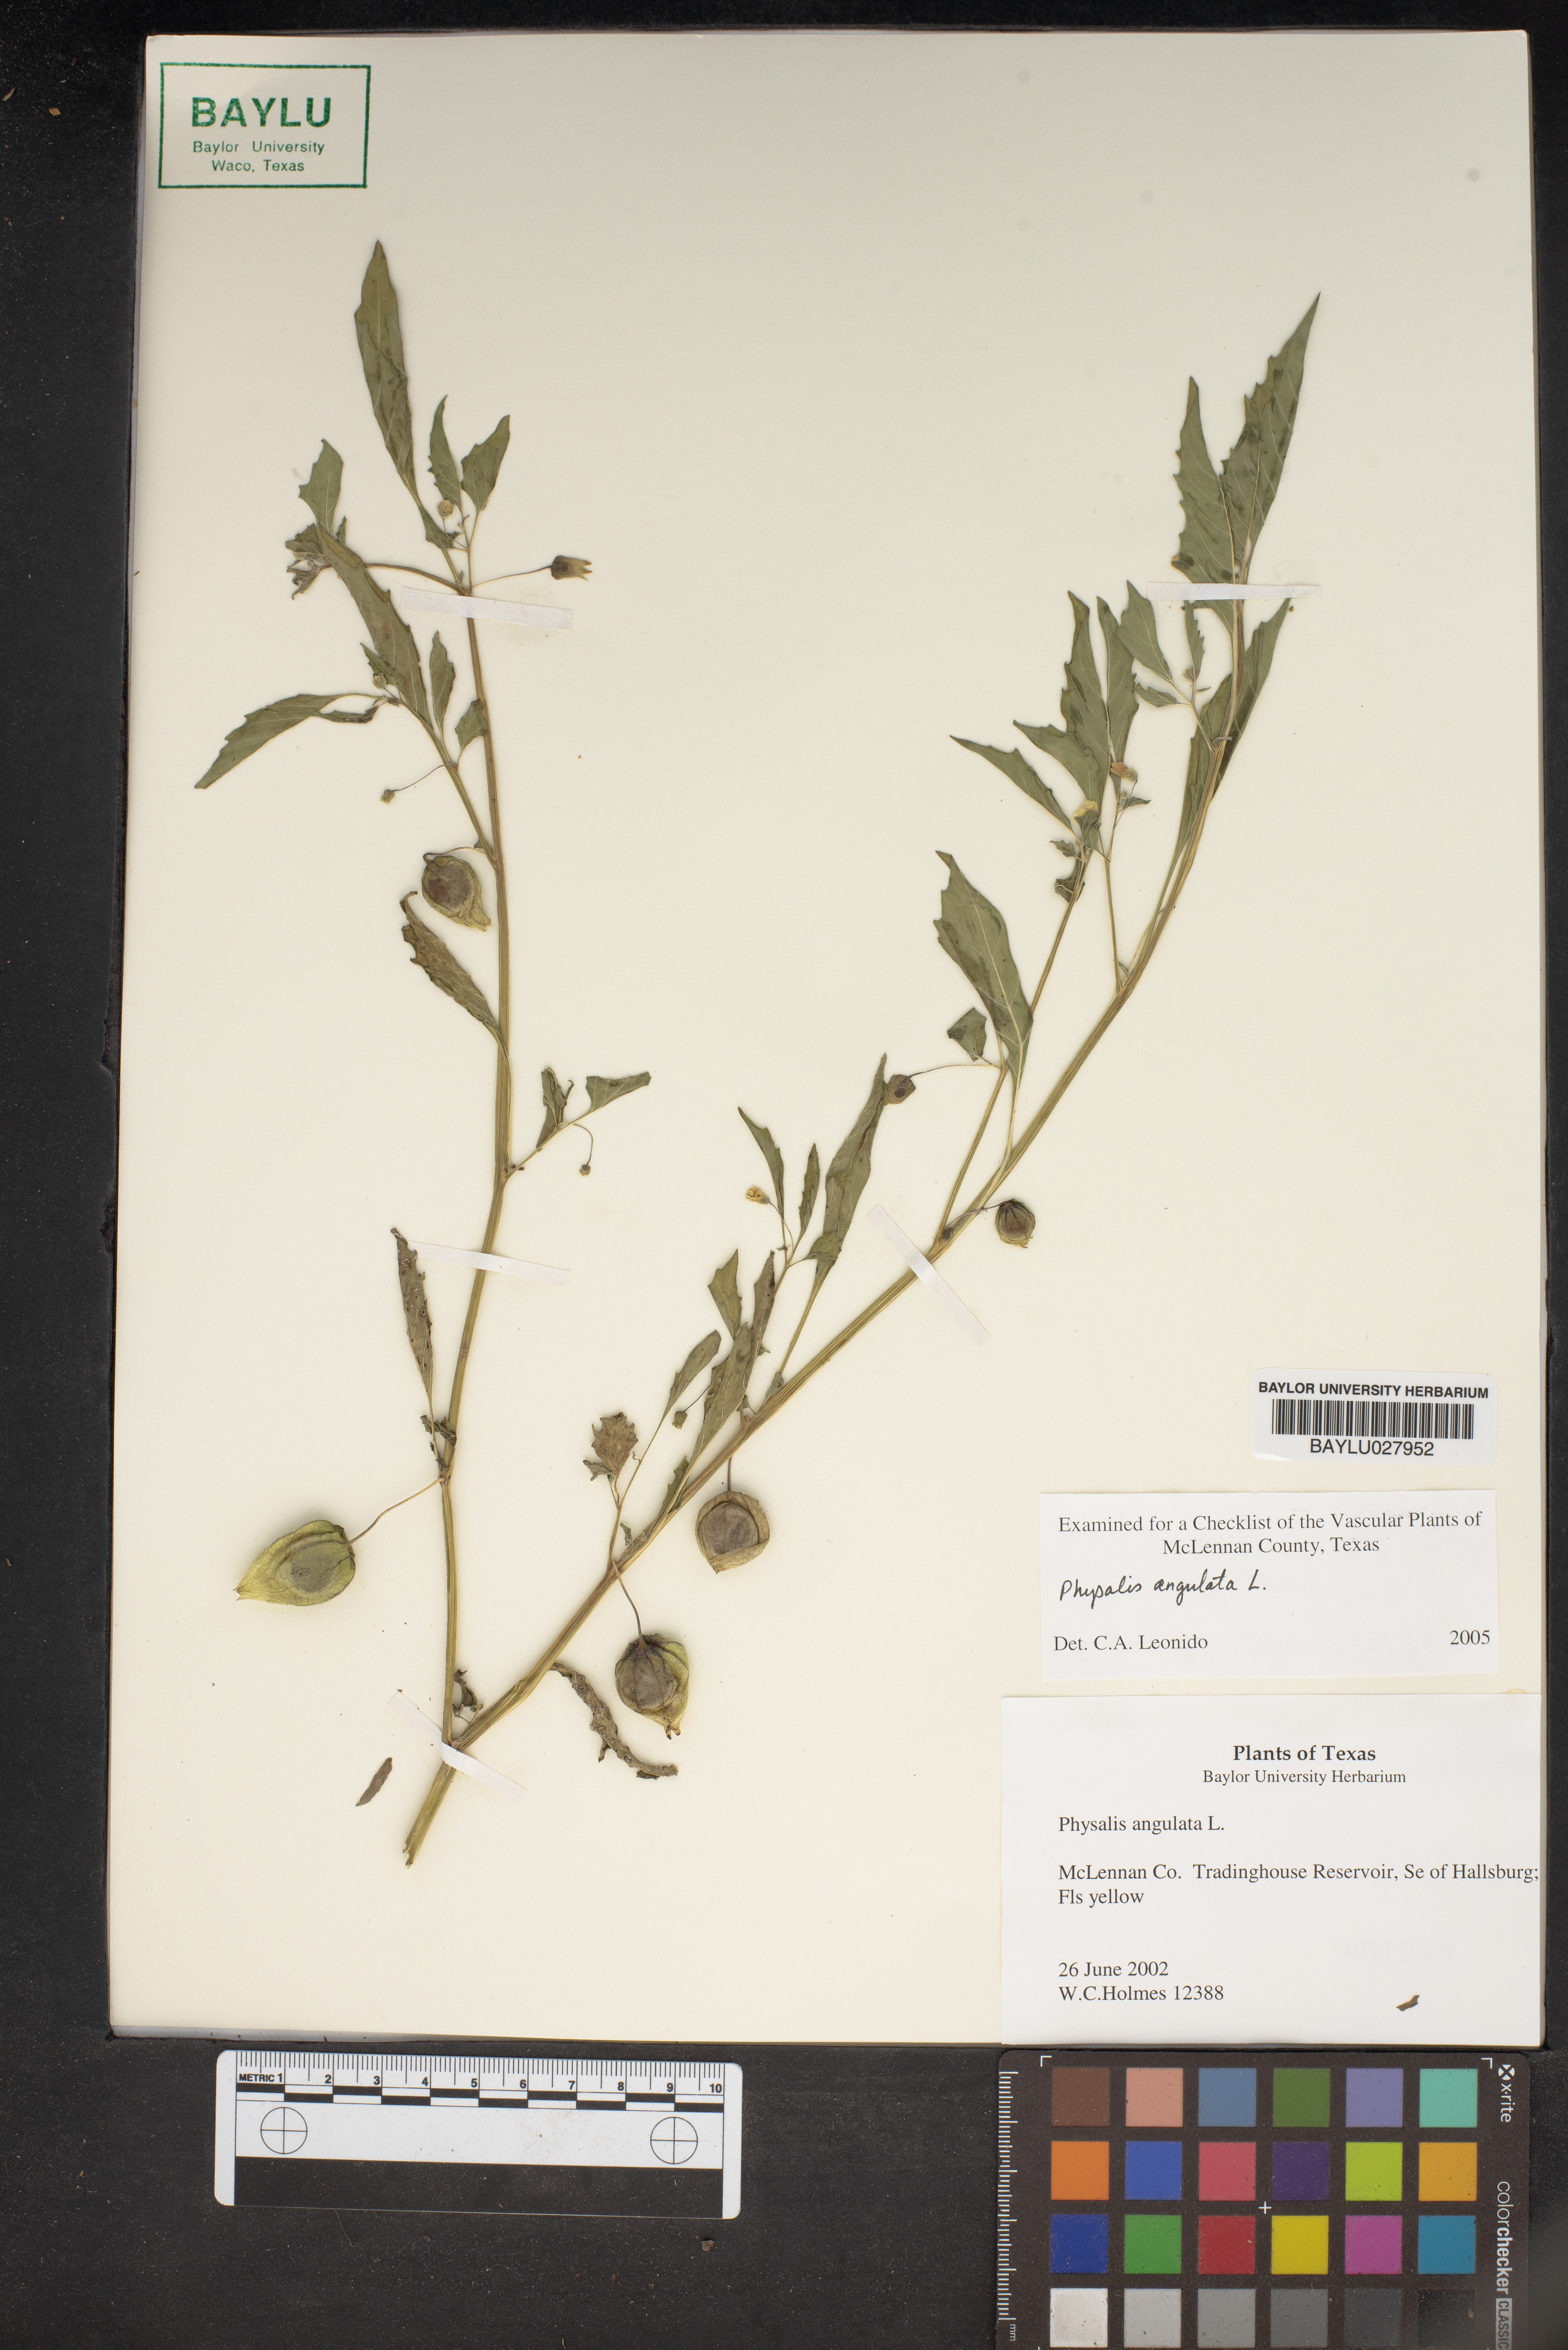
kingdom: Plantae
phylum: Tracheophyta
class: Magnoliopsida
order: Solanales
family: Solanaceae
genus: Physalis
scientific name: Physalis angulata
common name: Angular winter-cherry
